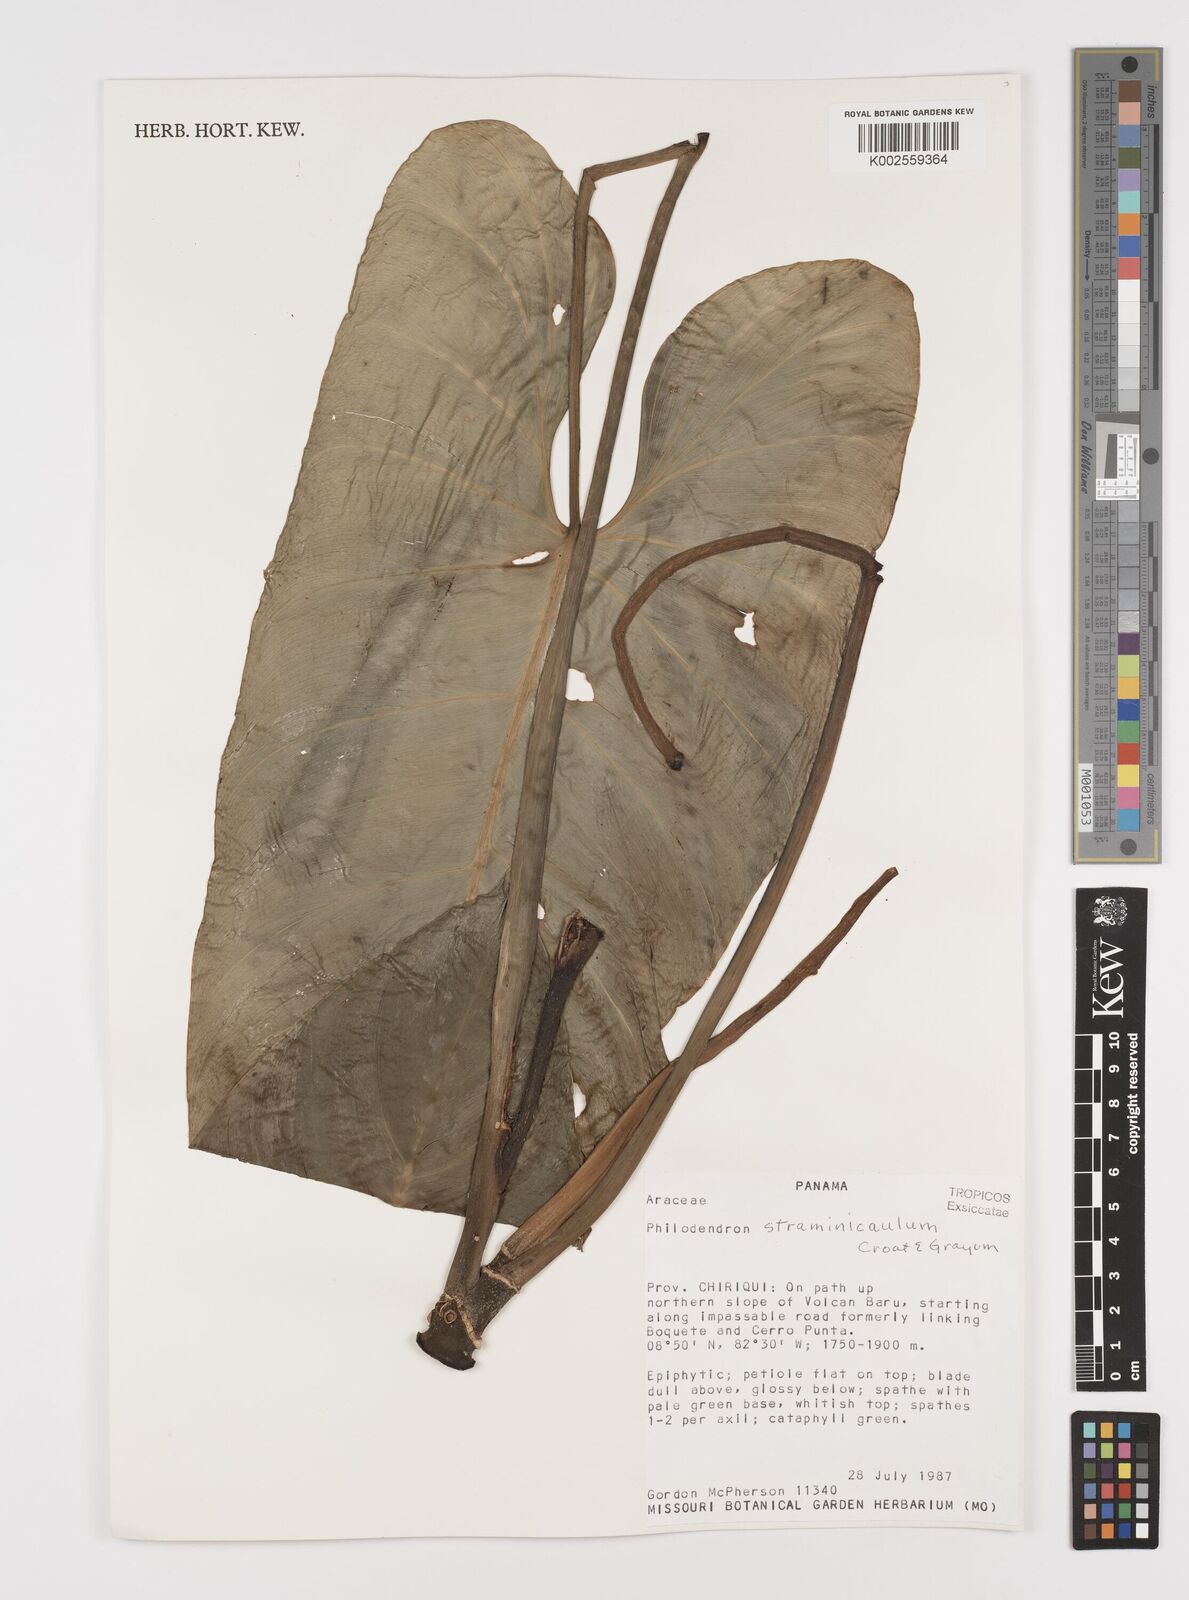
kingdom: Plantae
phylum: Tracheophyta
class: Liliopsida
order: Alismatales
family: Araceae
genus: Philodendron
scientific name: Philodendron straminicaule
